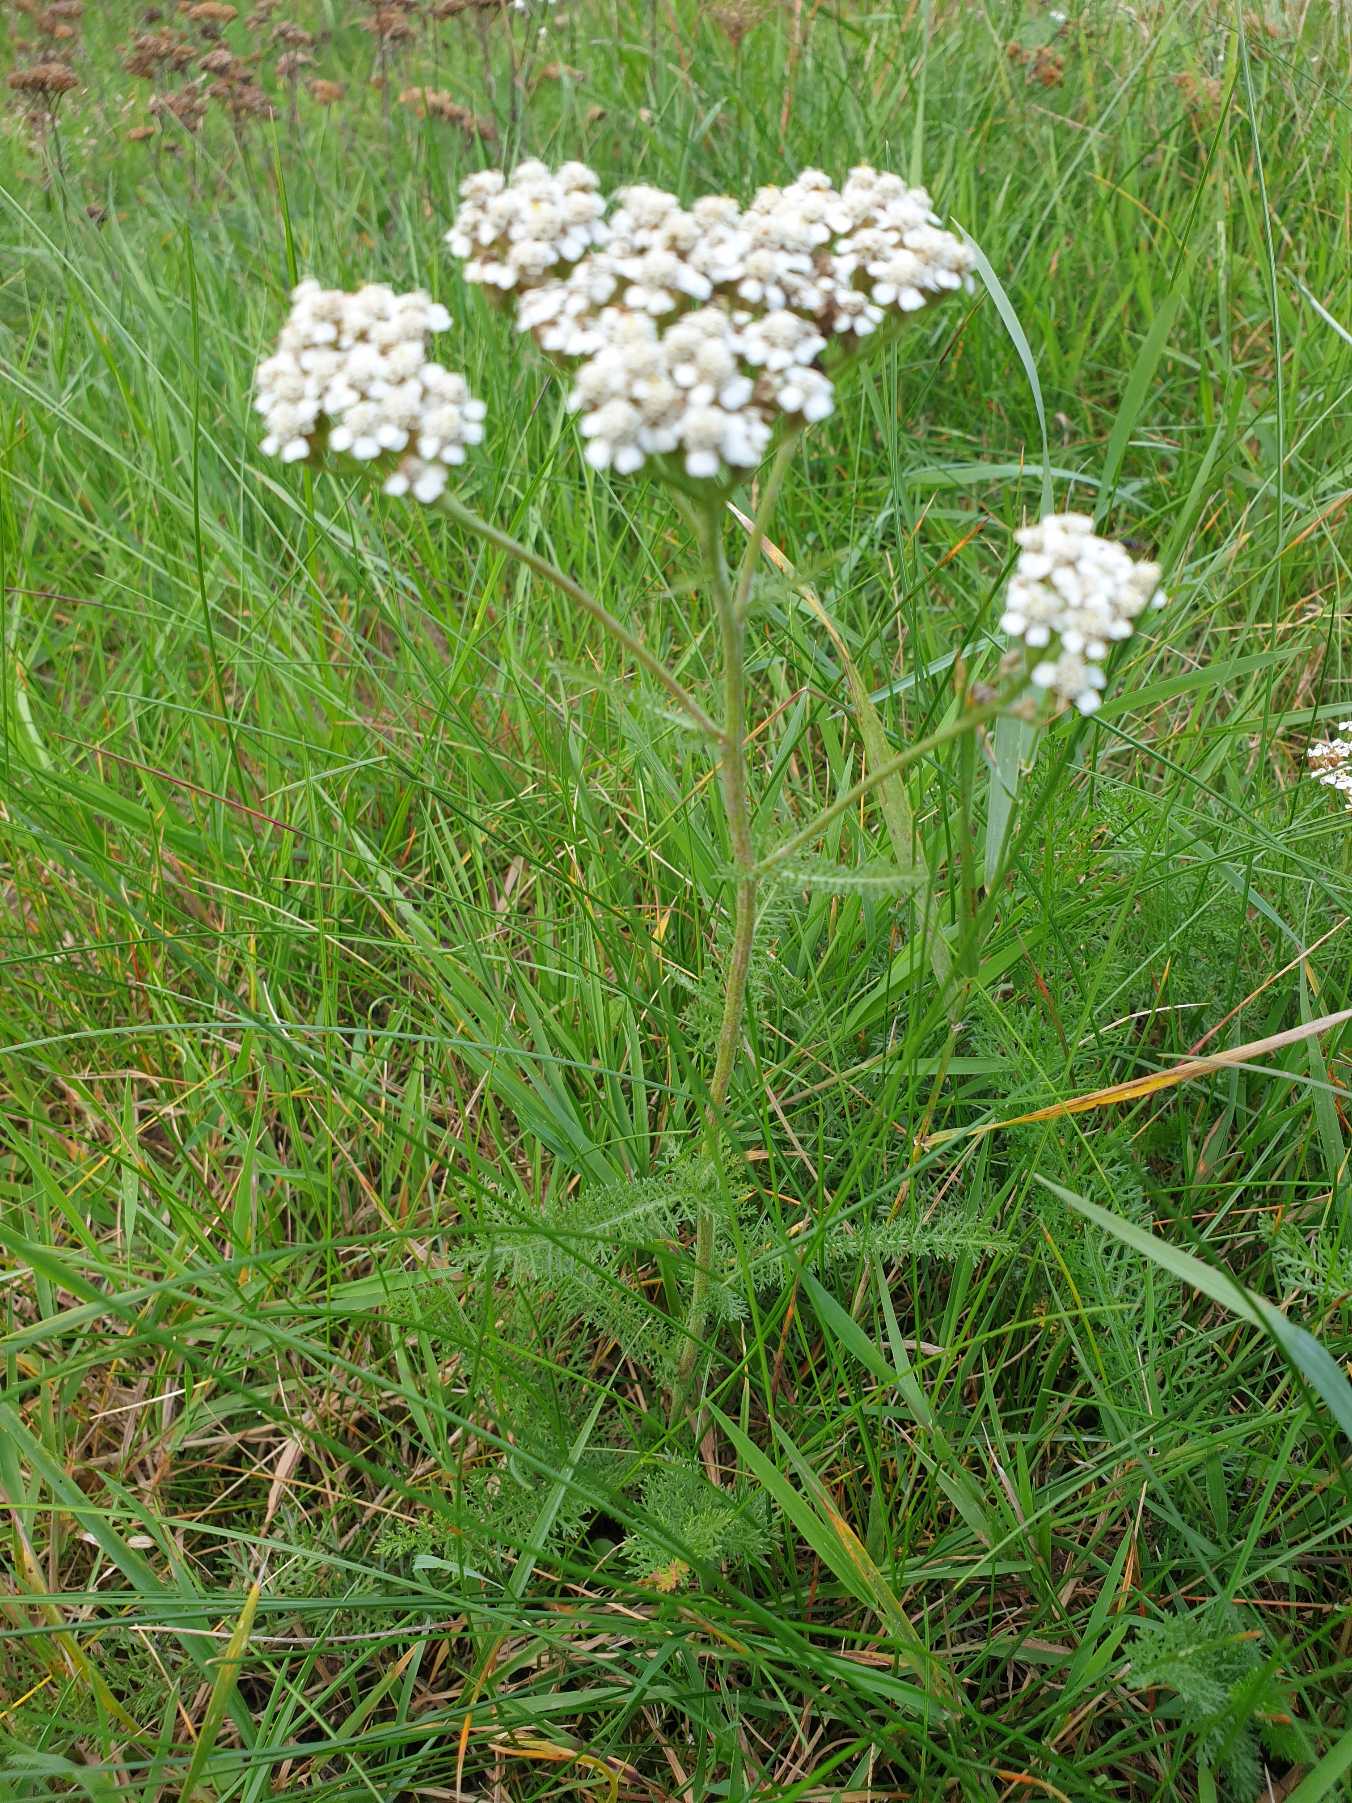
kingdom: Plantae
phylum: Tracheophyta
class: Magnoliopsida
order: Asterales
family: Asteraceae
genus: Achillea
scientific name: Achillea millefolium
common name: Almindelig røllike
